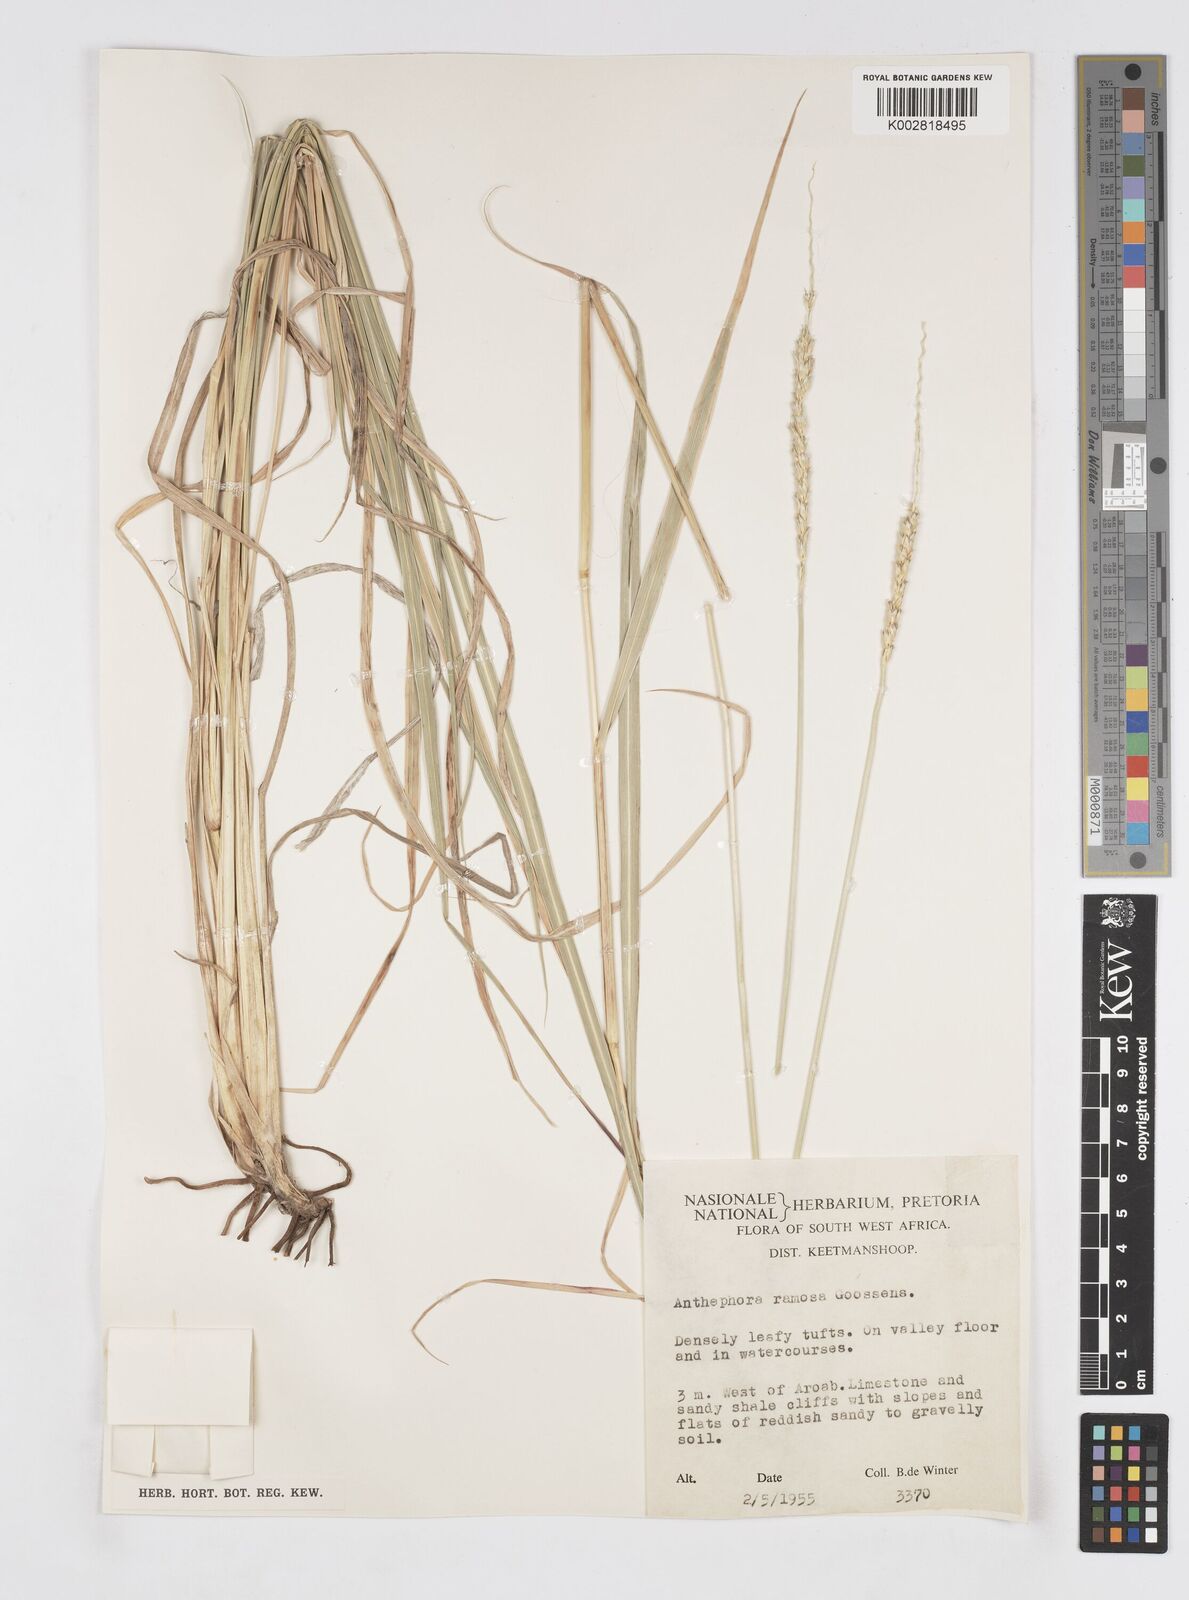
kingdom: Plantae
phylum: Tracheophyta
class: Liliopsida
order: Poales
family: Poaceae
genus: Anthephora
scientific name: Anthephora pubescens
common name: Wool grass
